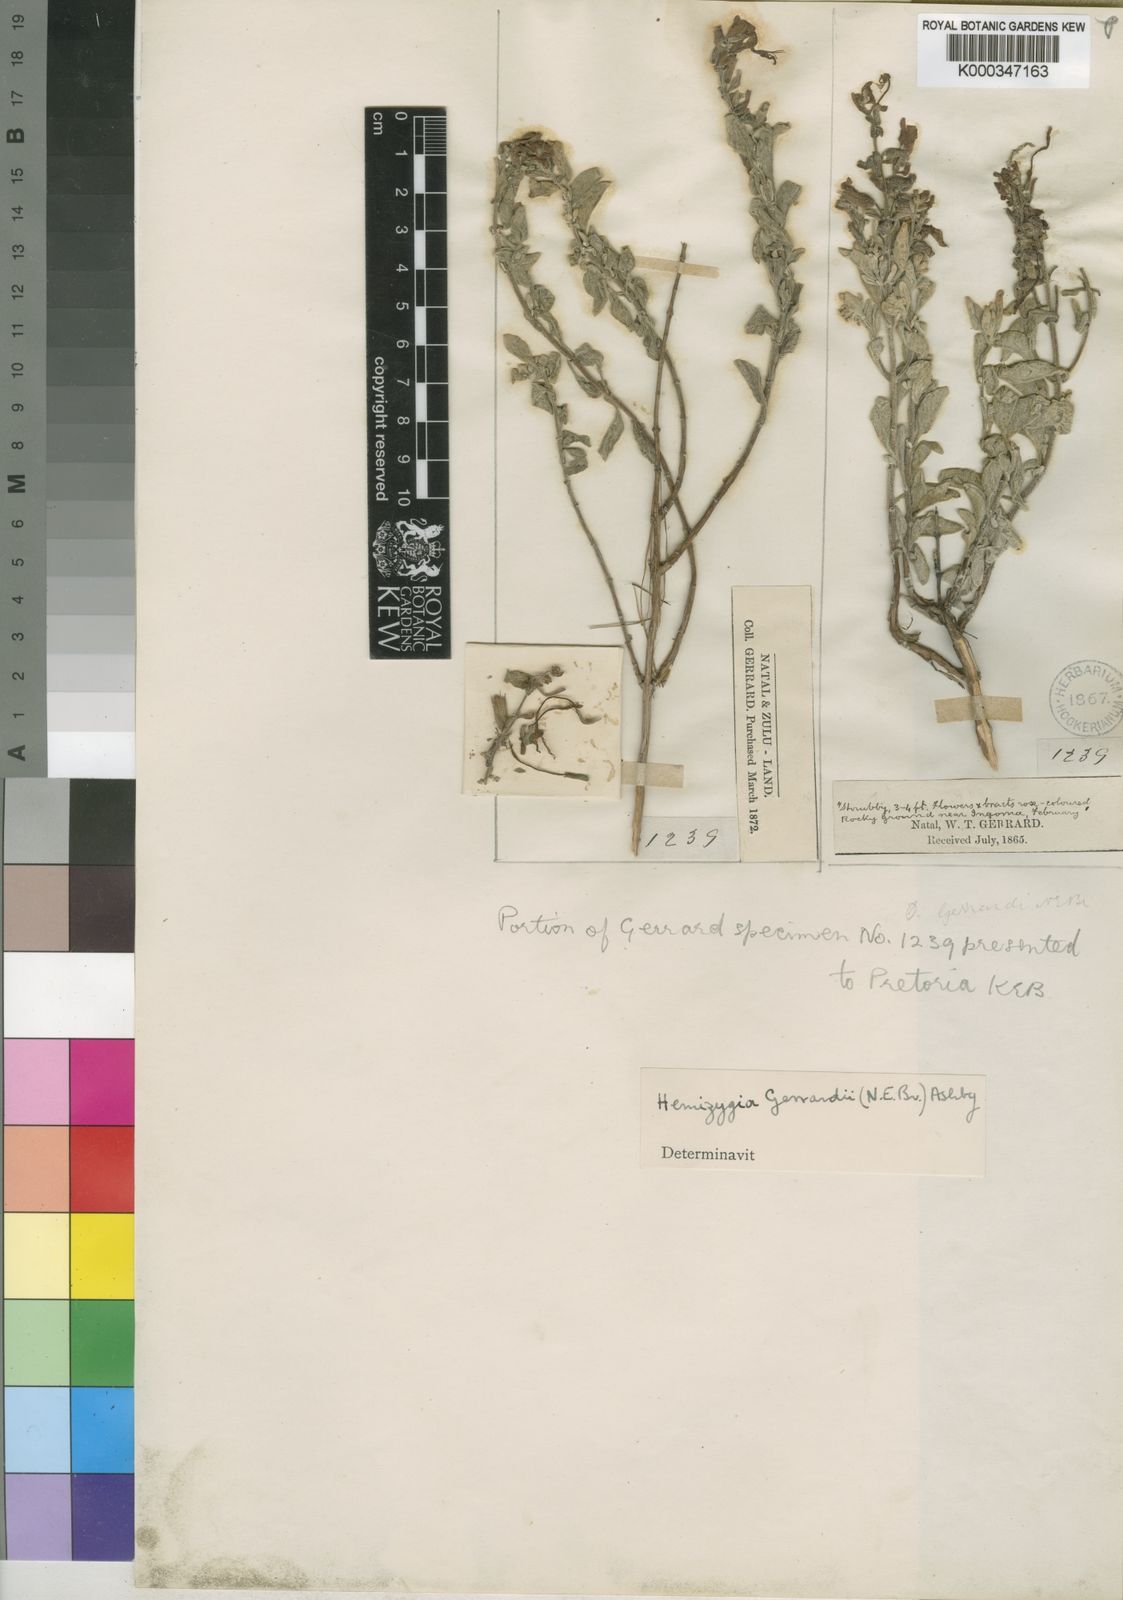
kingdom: Plantae
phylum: Tracheophyta
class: Magnoliopsida
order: Lamiales
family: Lamiaceae
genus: Syncolostemon
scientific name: Syncolostemon gerrardii
